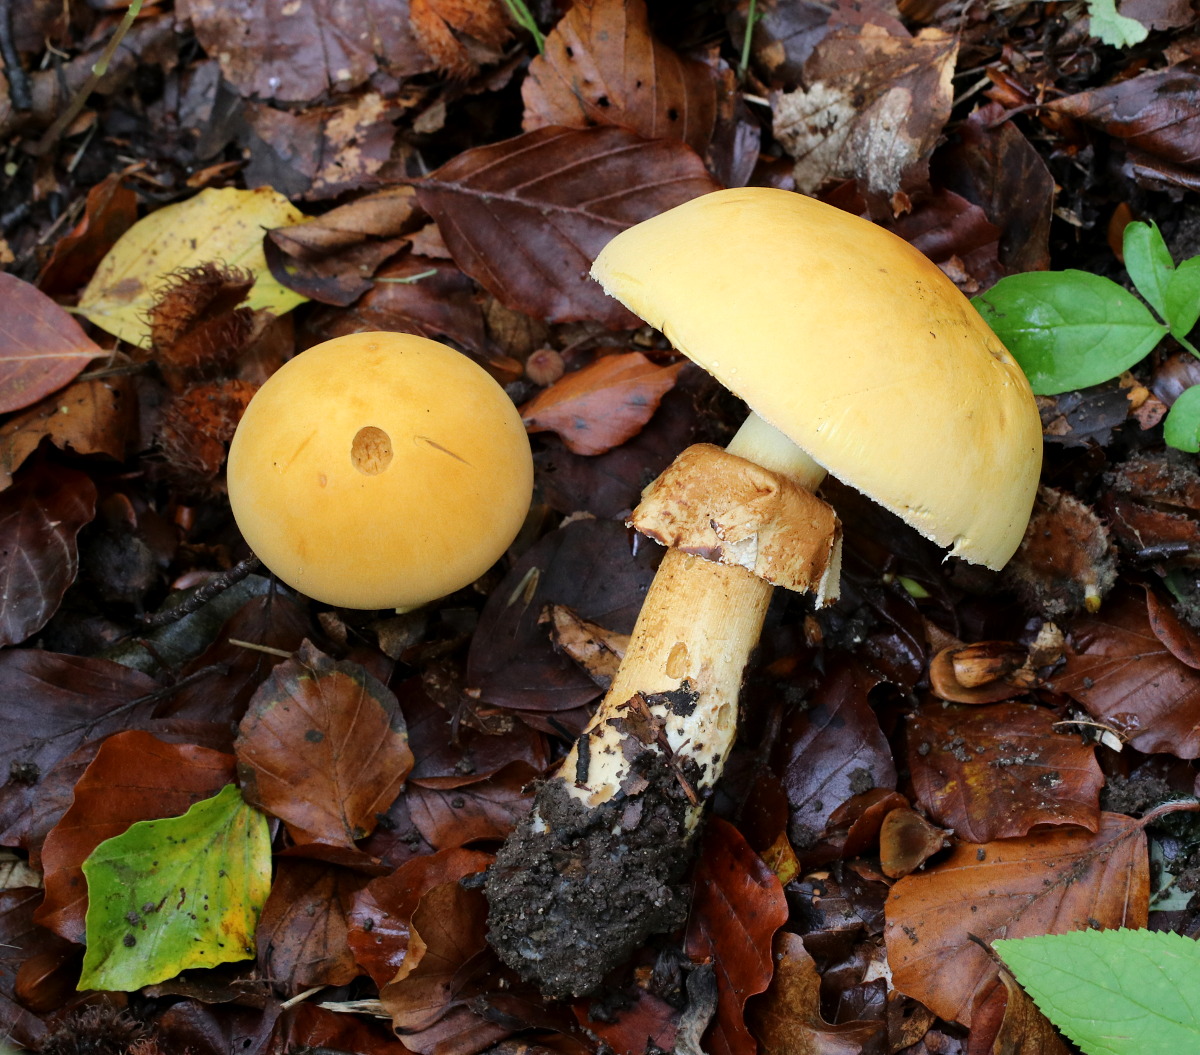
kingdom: Fungi
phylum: Basidiomycota
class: Agaricomycetes
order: Agaricales
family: Tricholomataceae
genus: Phaeolepiota
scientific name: Phaeolepiota aurea
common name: gyldenhat
